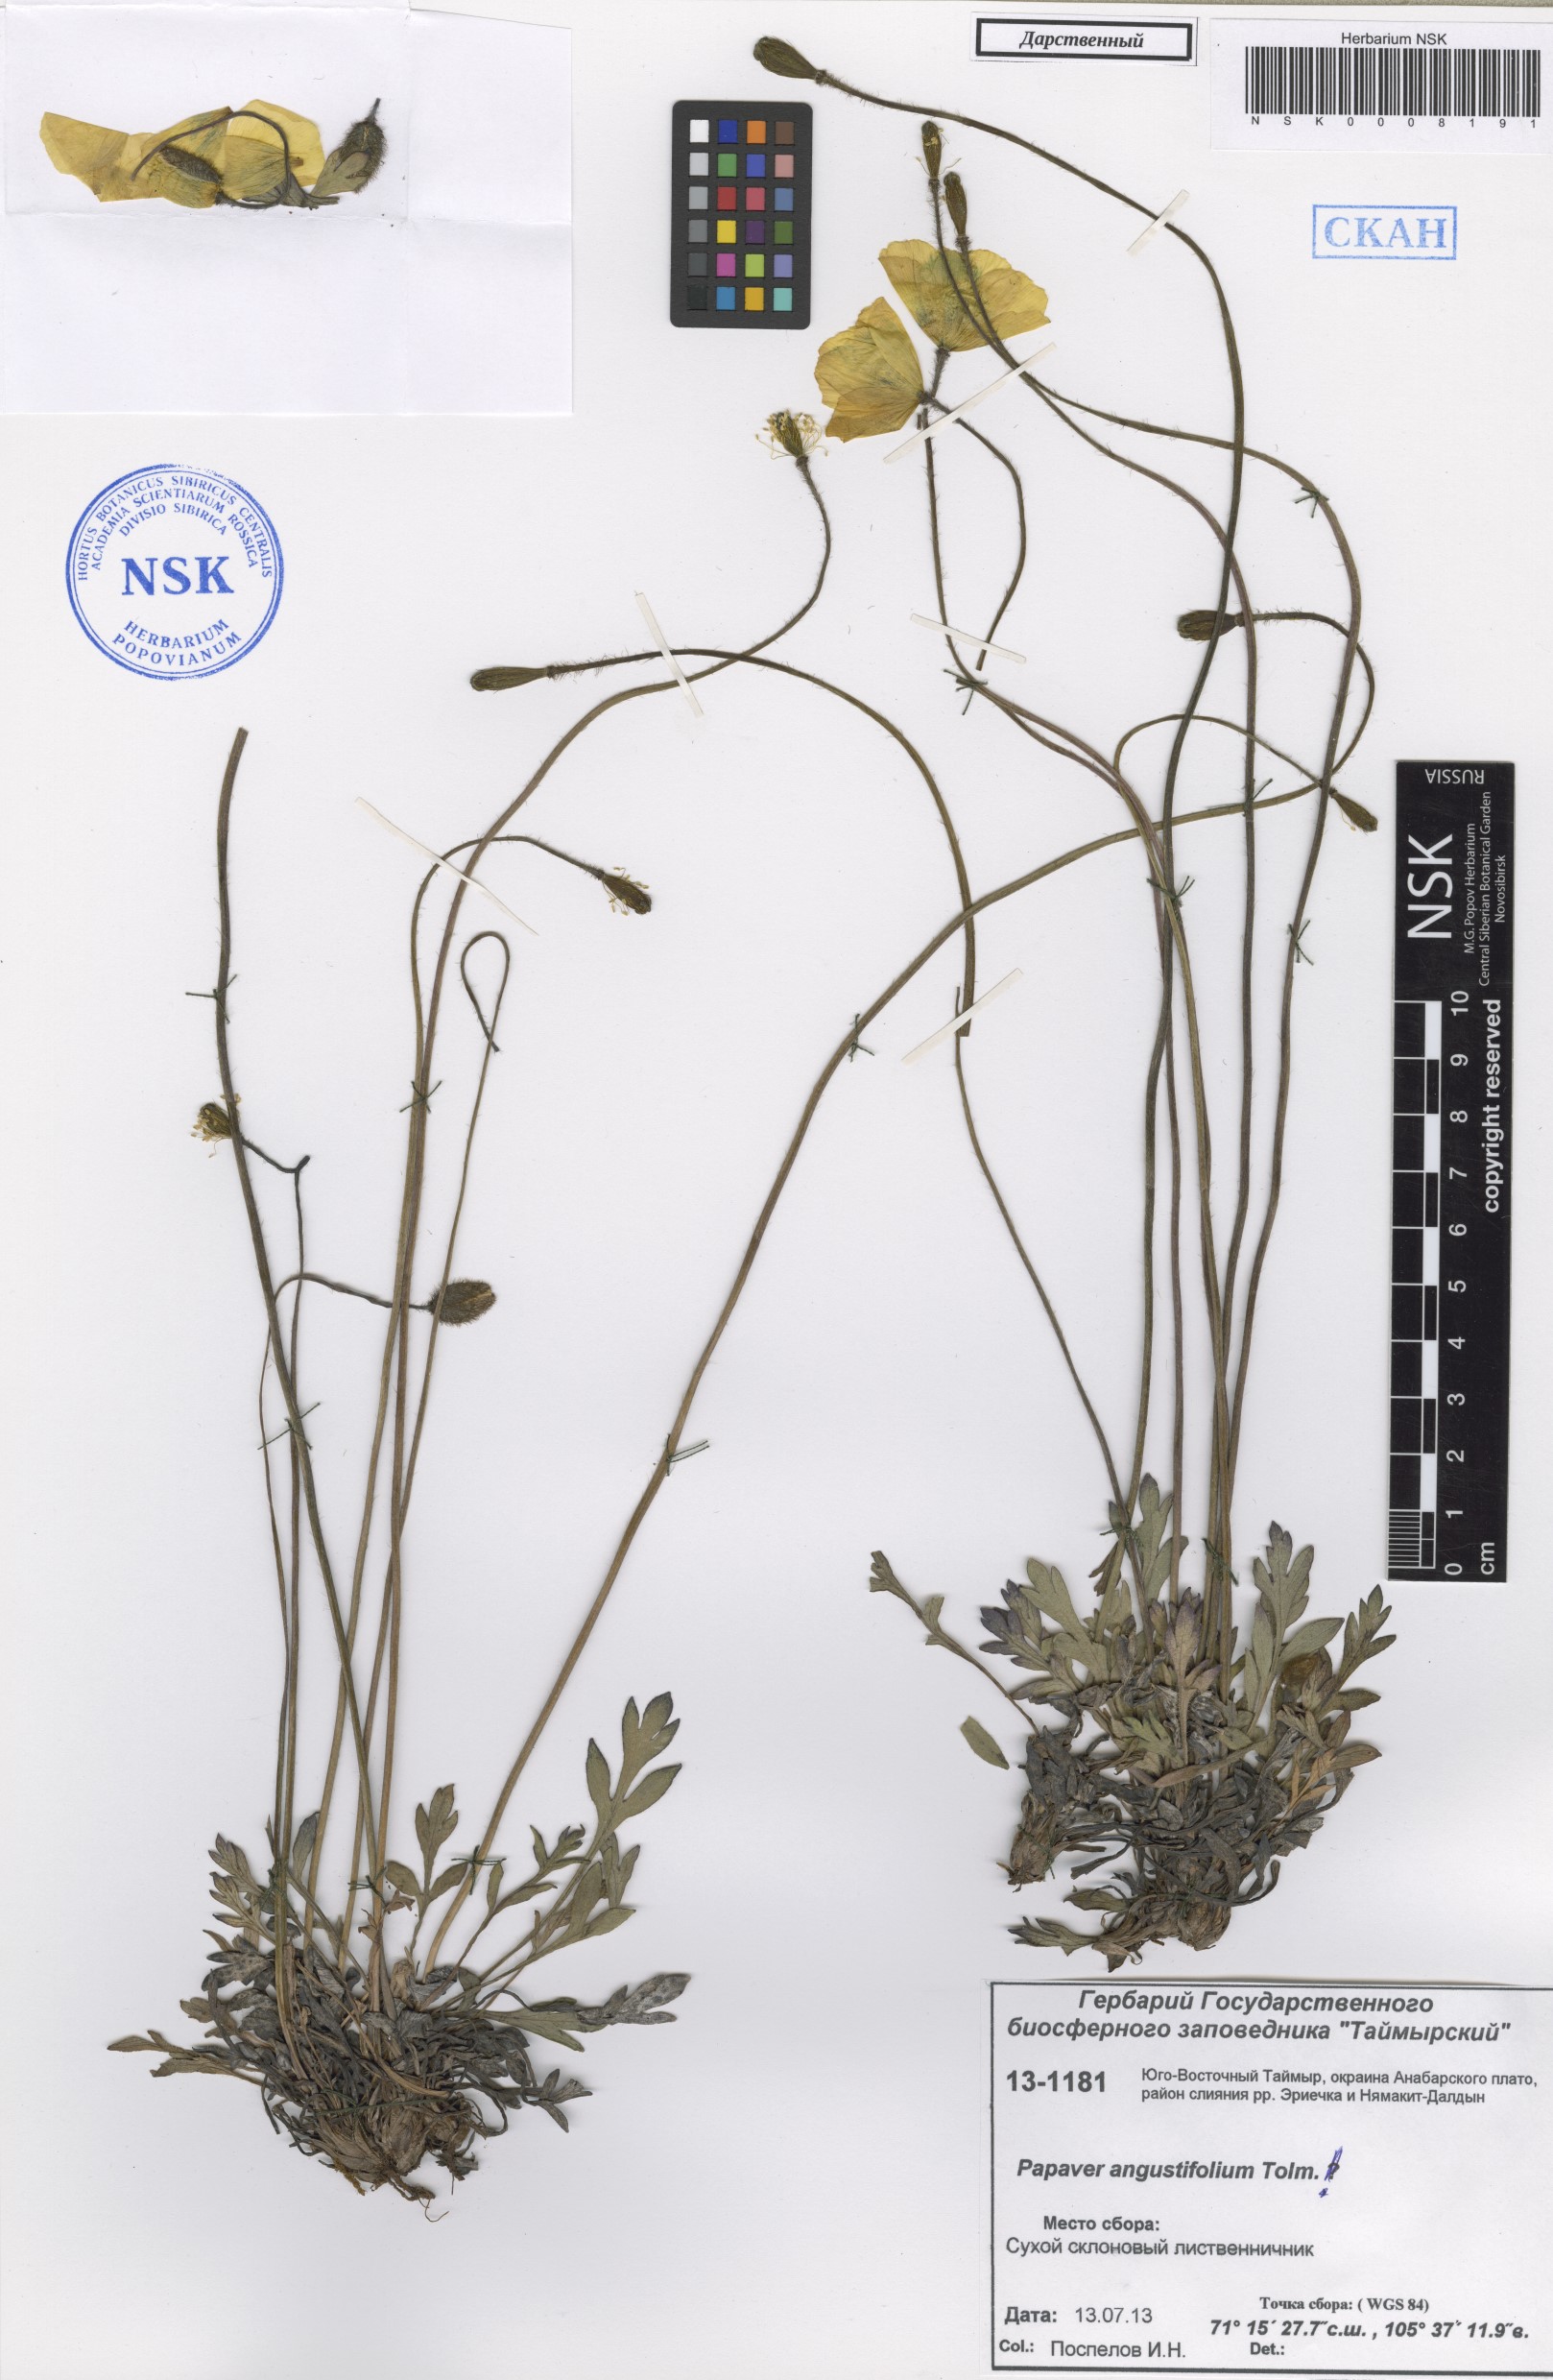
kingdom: Plantae
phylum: Tracheophyta
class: Magnoliopsida
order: Ranunculales
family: Papaveraceae
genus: Papaver
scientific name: Papaver angustifolium
